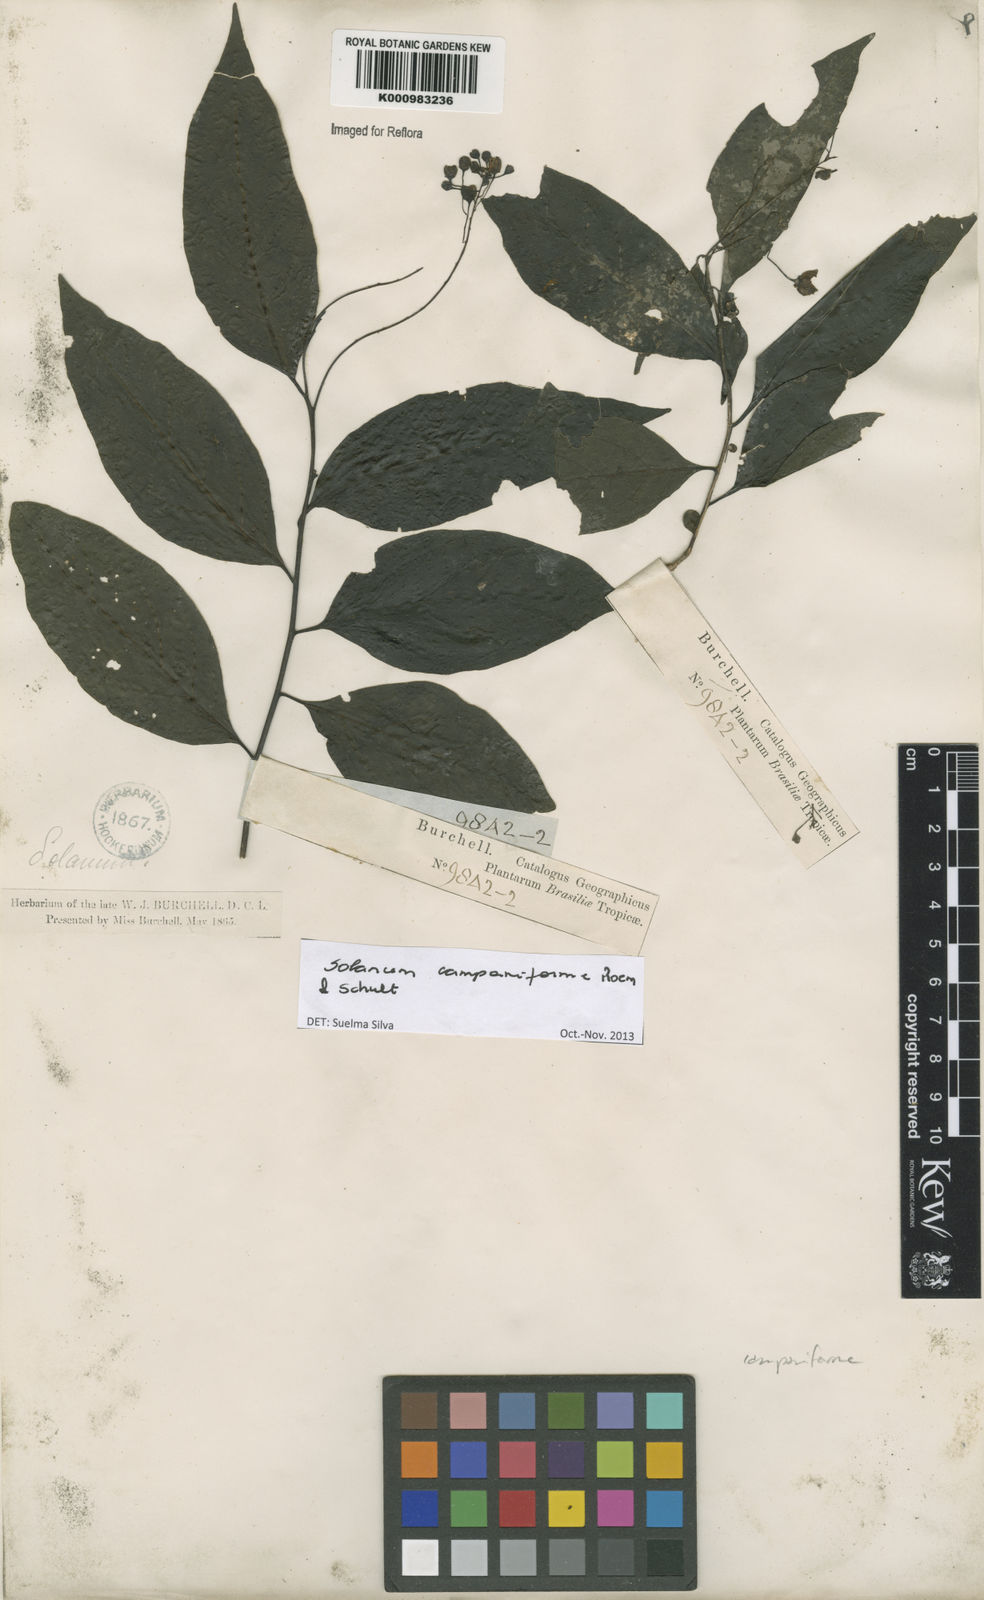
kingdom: Plantae
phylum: Tracheophyta
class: Magnoliopsida
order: Solanales
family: Solanaceae
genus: Solanum
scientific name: Solanum campaniforme
